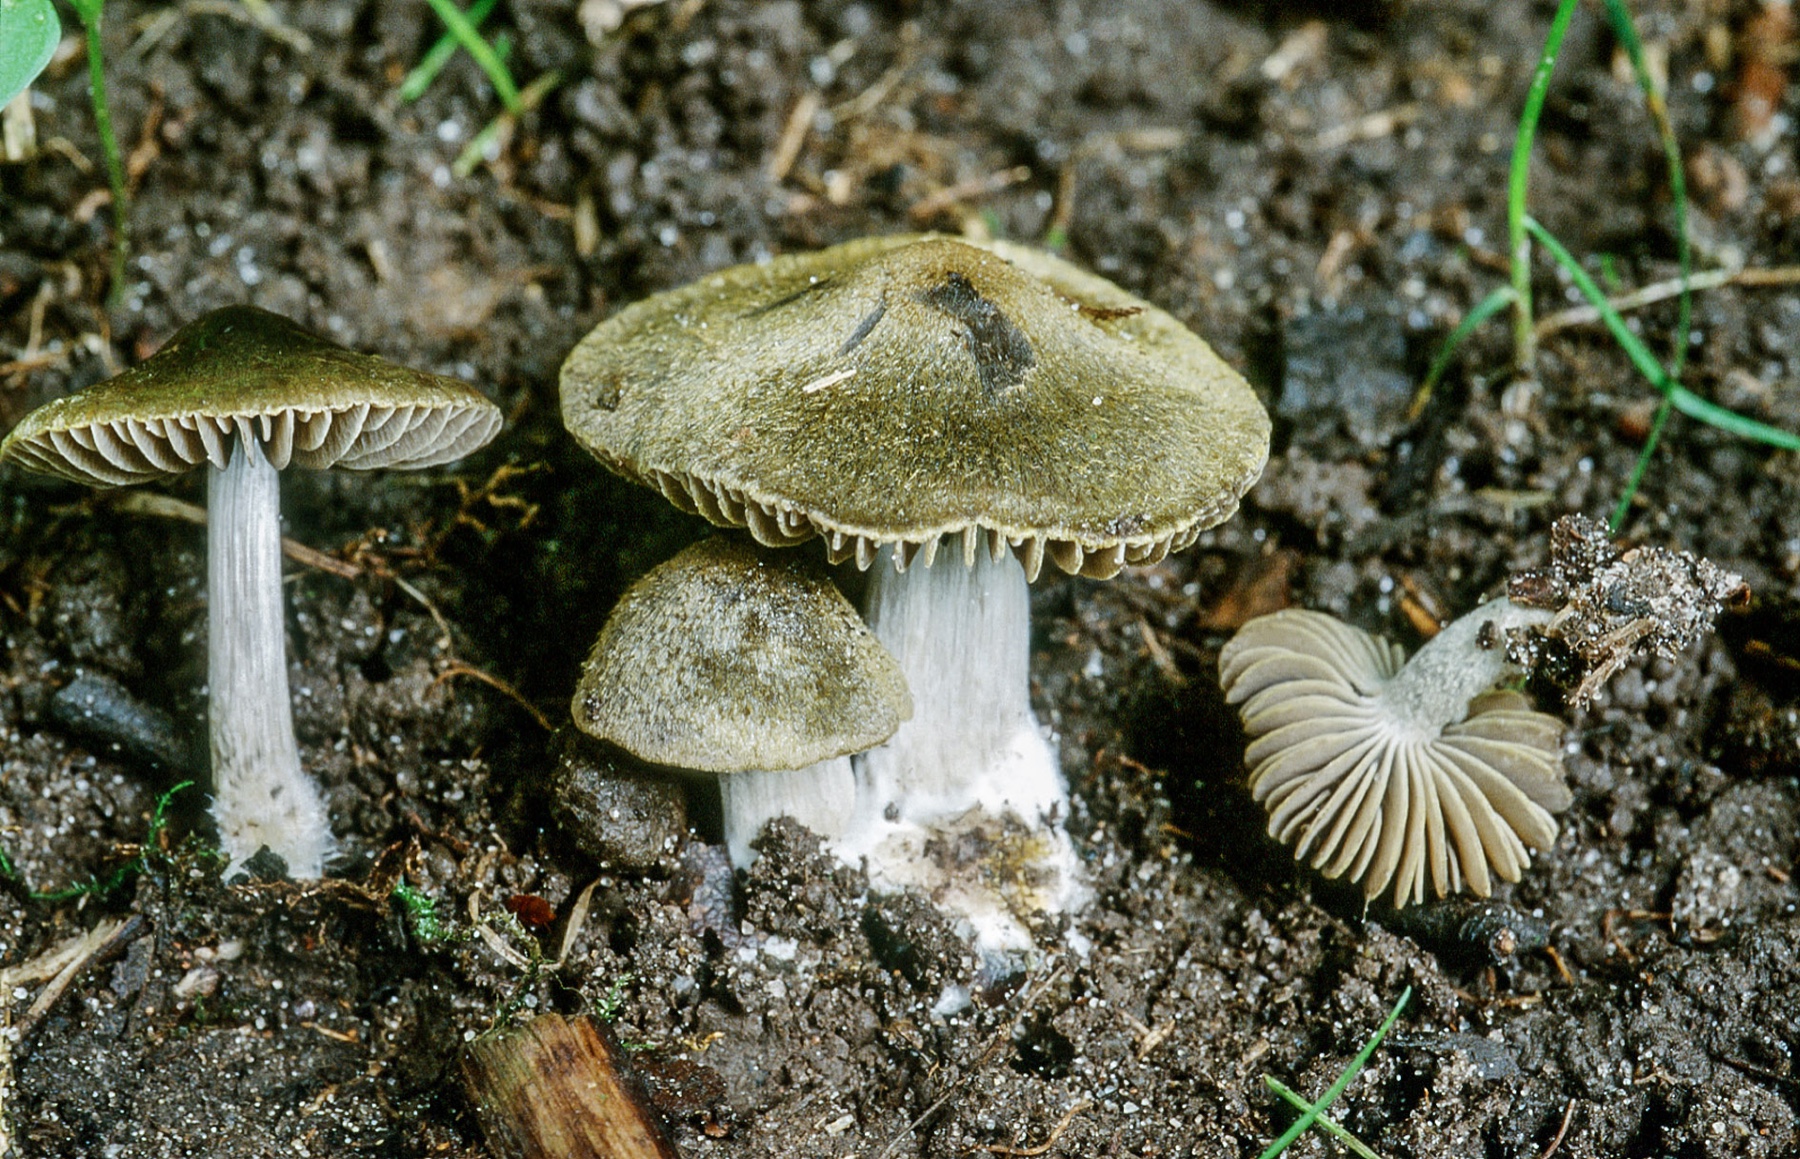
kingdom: Fungi
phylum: Basidiomycota
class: Agaricomycetes
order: Agaricales
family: Entolomataceae
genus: Entoloma
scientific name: Entoloma versatile
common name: metalgrøn rødblad
